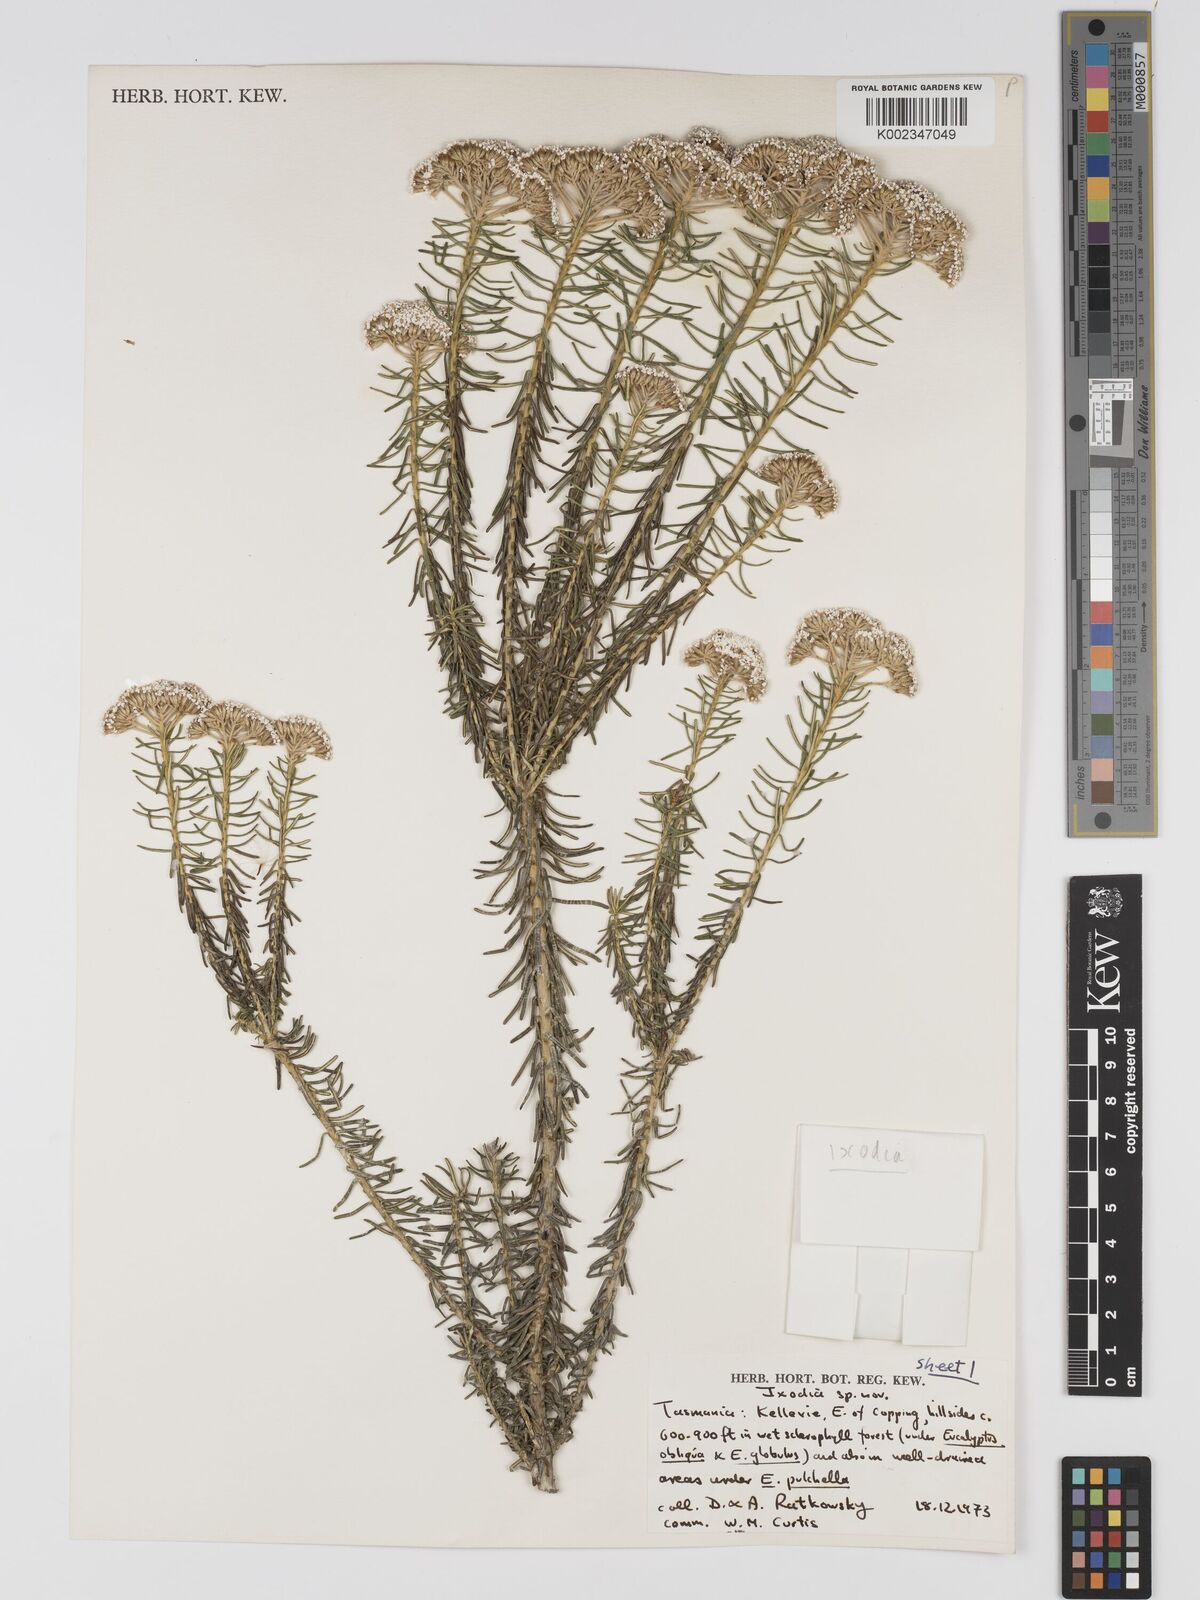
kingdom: Plantae
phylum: Tracheophyta
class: Magnoliopsida
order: Asterales
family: Asteraceae
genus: Odixia
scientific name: Odixia achlaena
